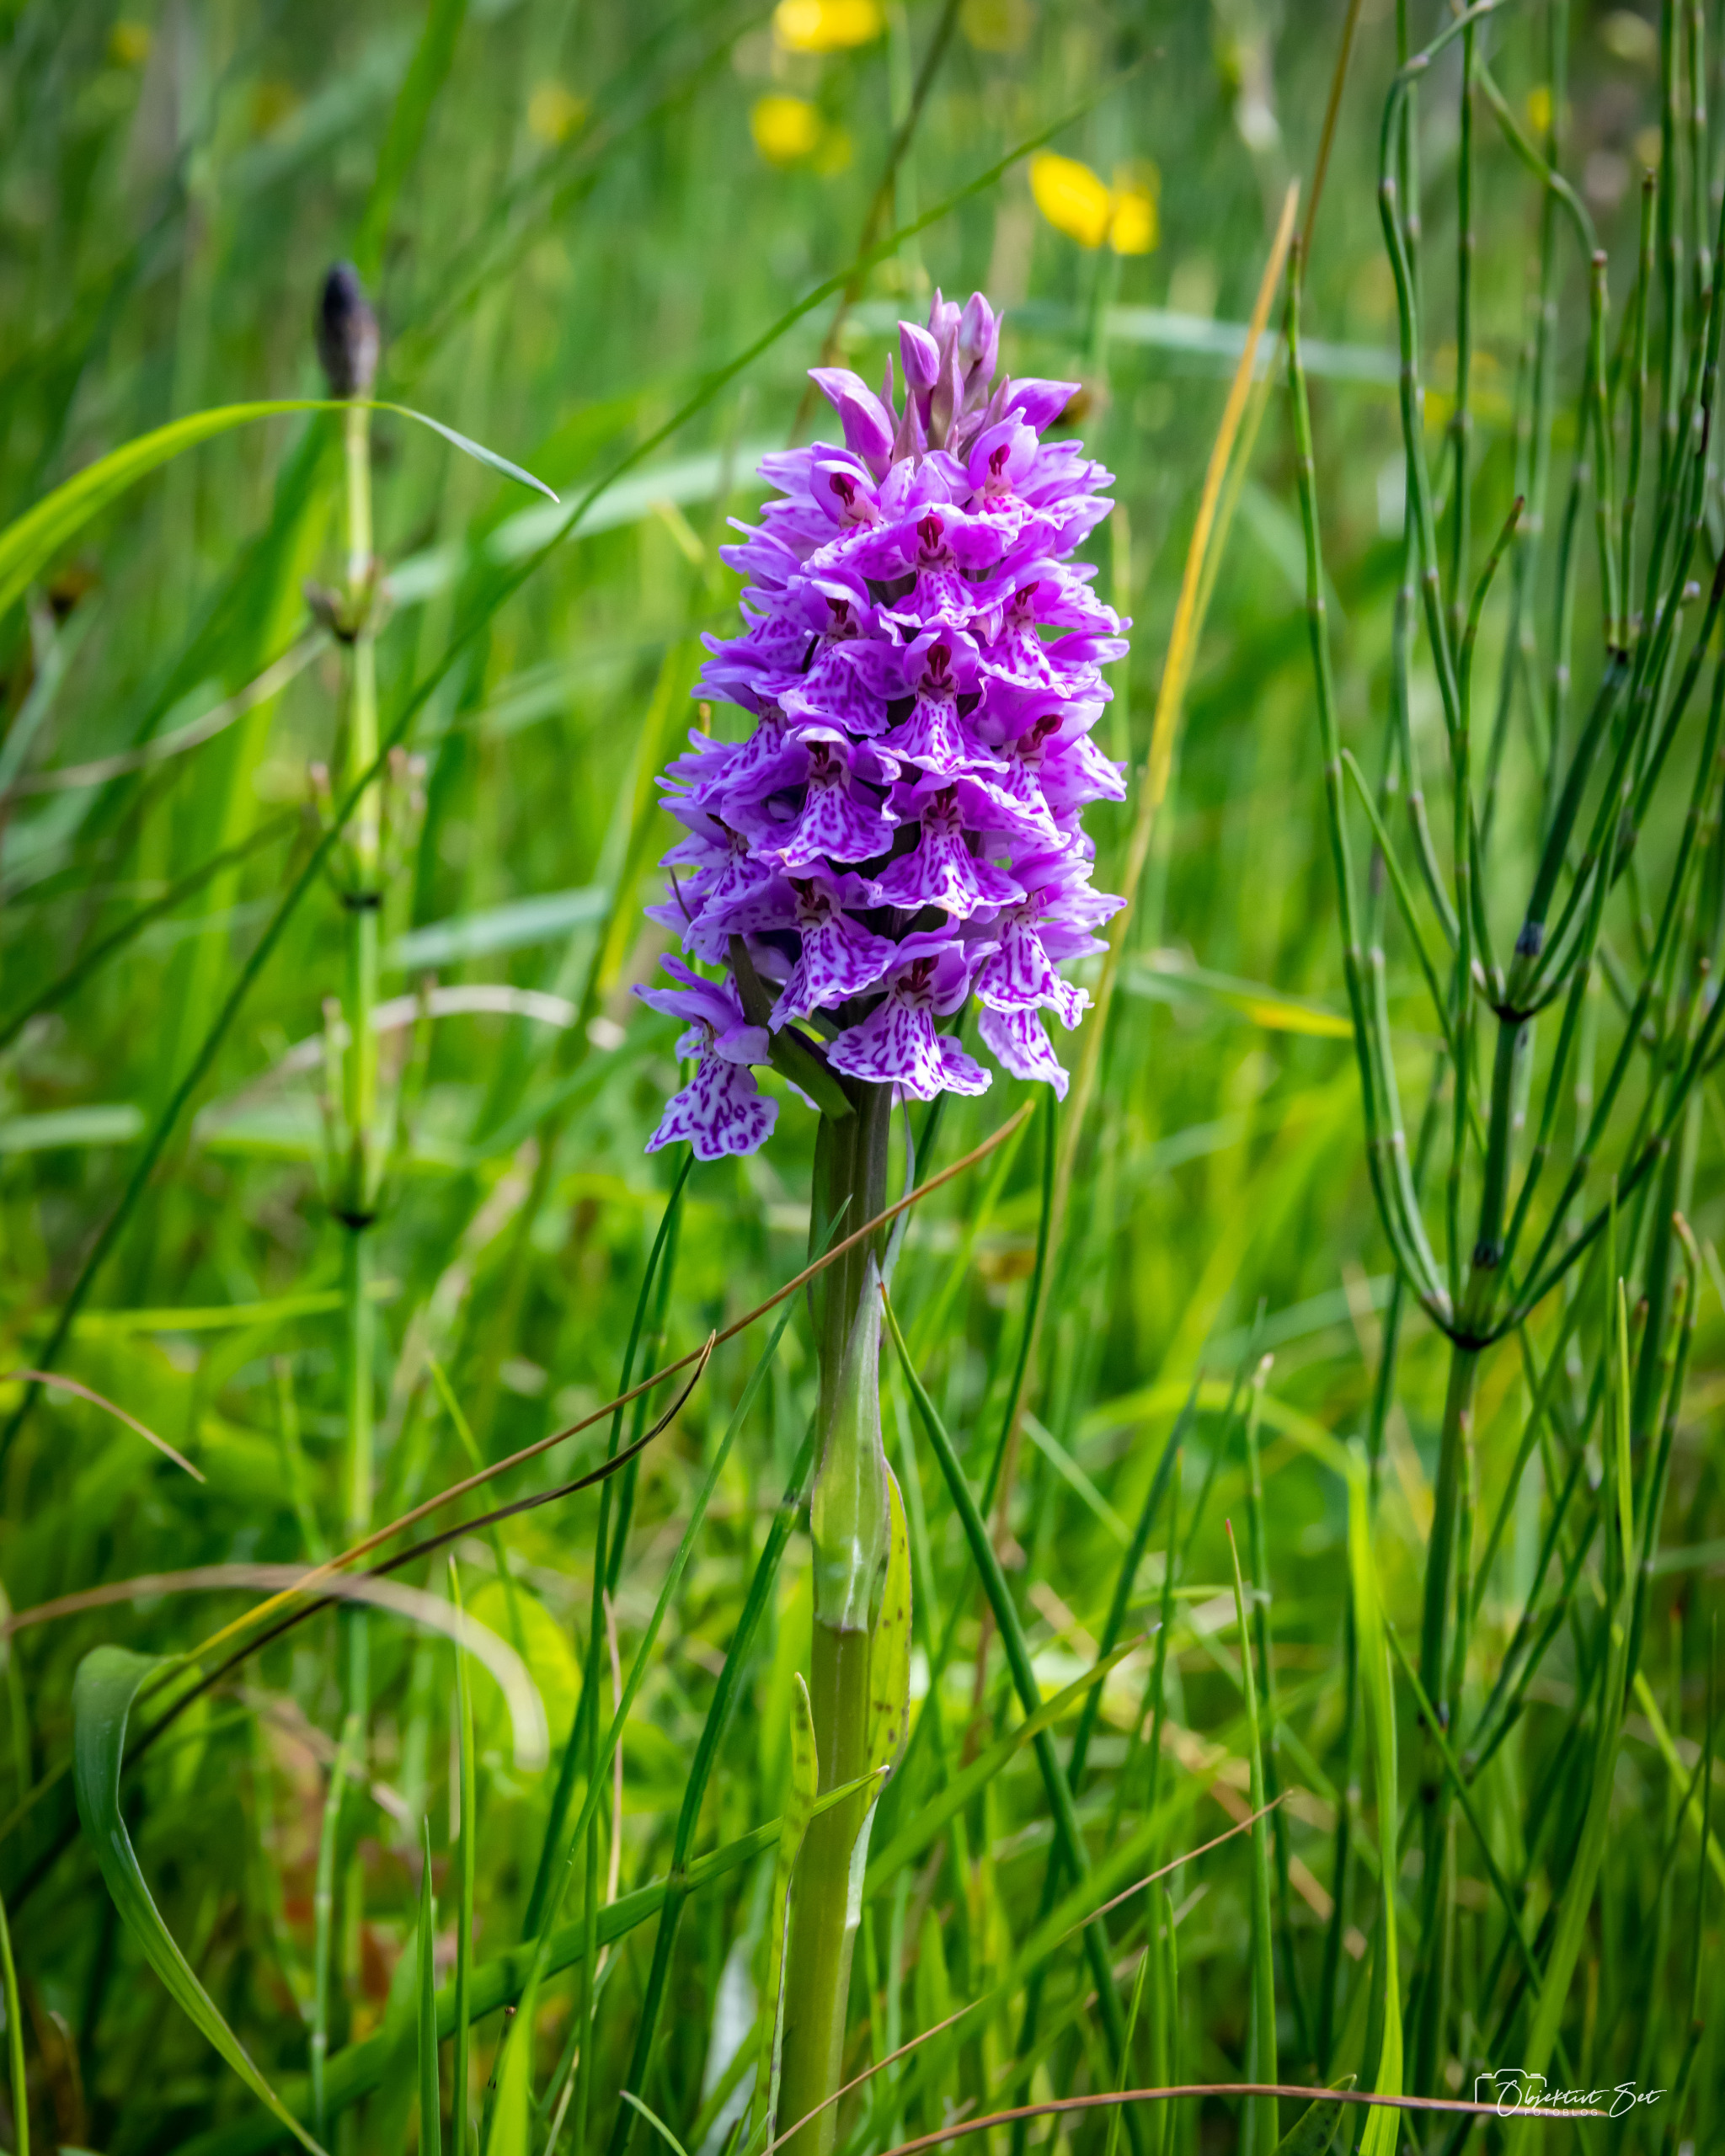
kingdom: Plantae
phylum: Tracheophyta
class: Liliopsida
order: Asparagales
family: Orchidaceae
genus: Dactylorhiza
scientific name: Dactylorhiza maculata
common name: Plettet gøgeurt
